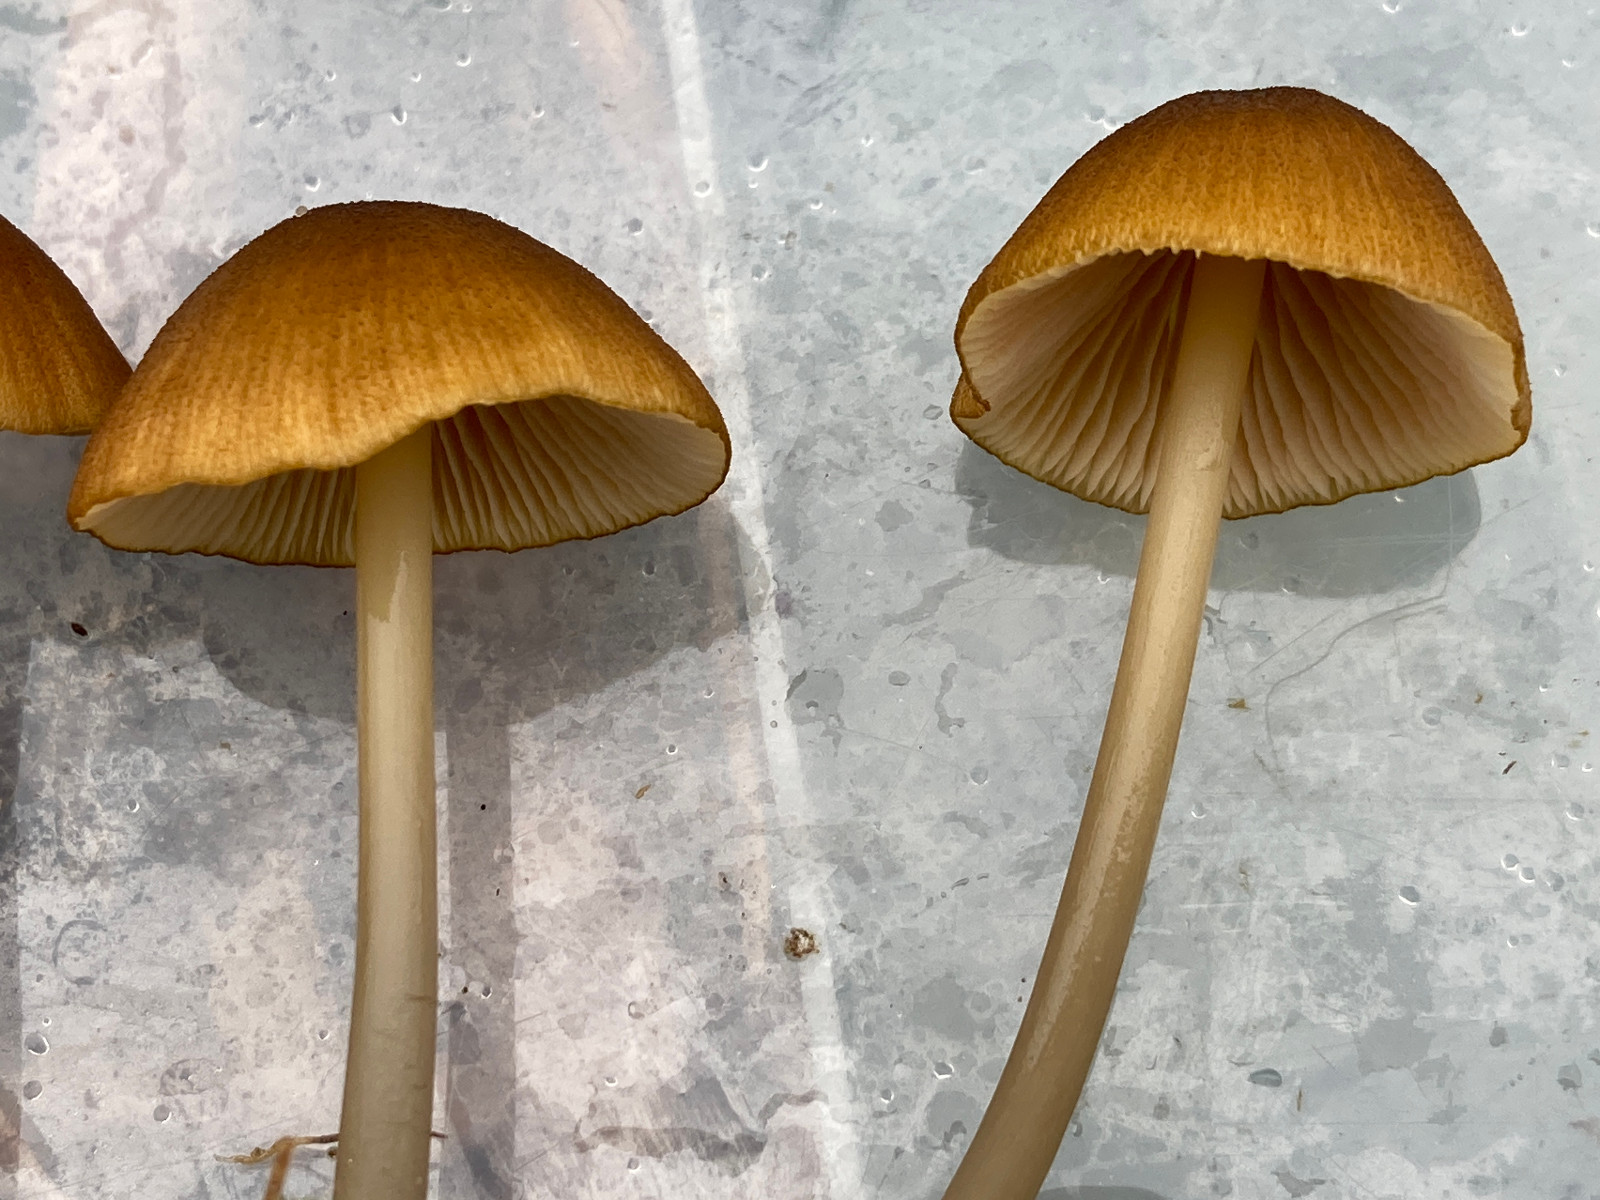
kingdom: Fungi
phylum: Basidiomycota
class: Agaricomycetes
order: Agaricales
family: Entolomataceae
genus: Entoloma
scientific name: Entoloma formosum
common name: brungul rødblad
